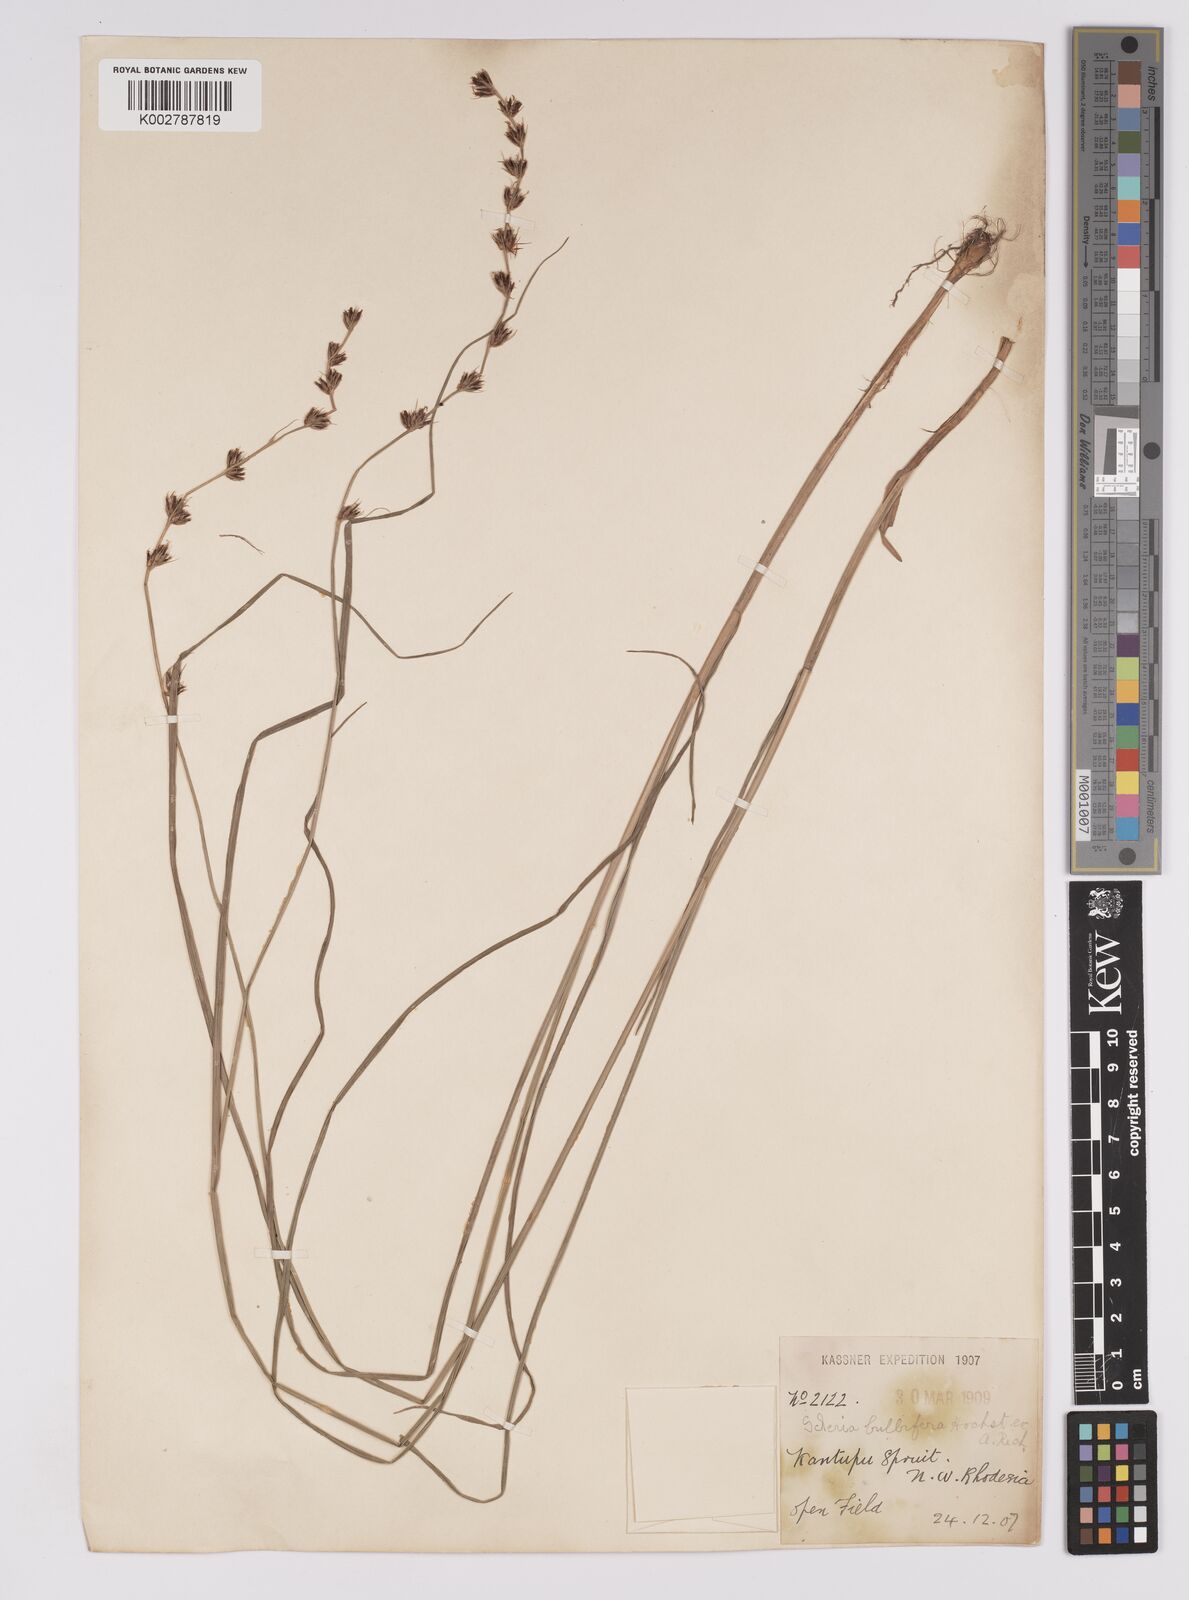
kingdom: Plantae
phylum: Tracheophyta
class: Liliopsida
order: Poales
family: Cyperaceae
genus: Scleria
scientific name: Scleria bulbifera
